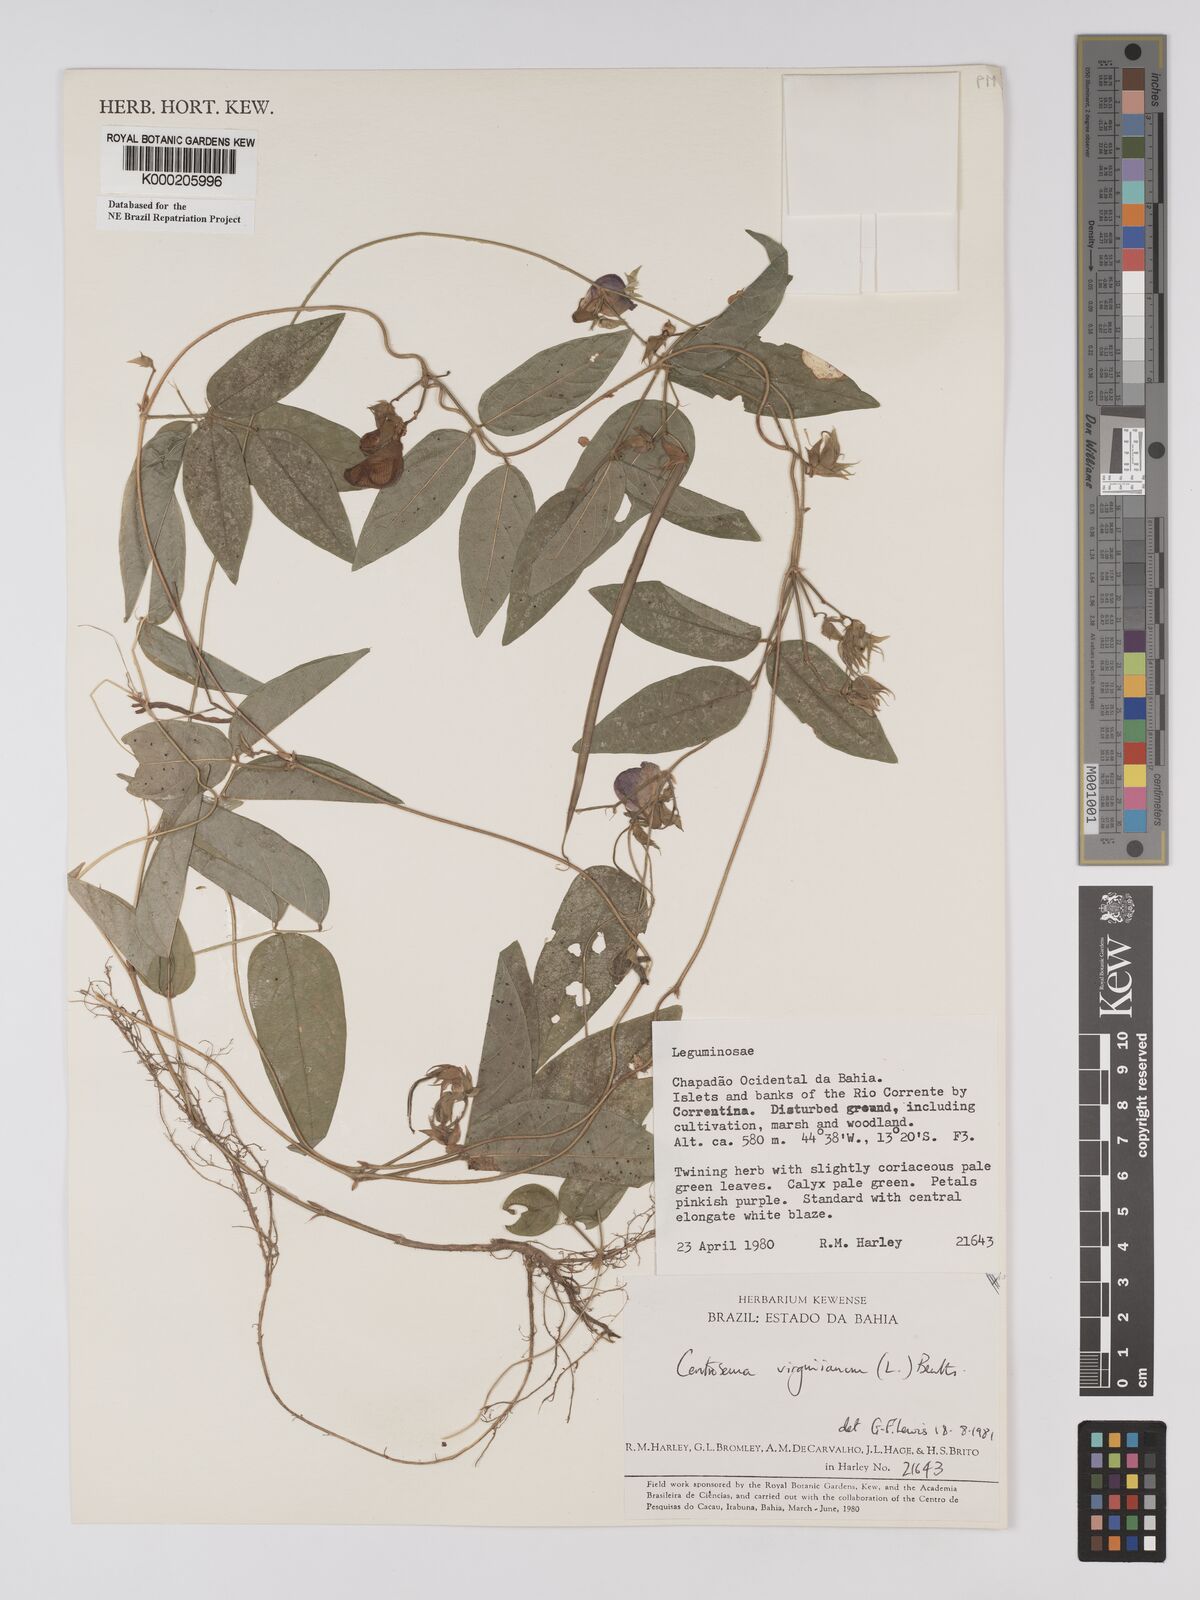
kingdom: Plantae
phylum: Tracheophyta
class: Magnoliopsida
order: Fabales
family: Fabaceae
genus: Centrosema
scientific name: Centrosema virginianum
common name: Butterfly-pea
